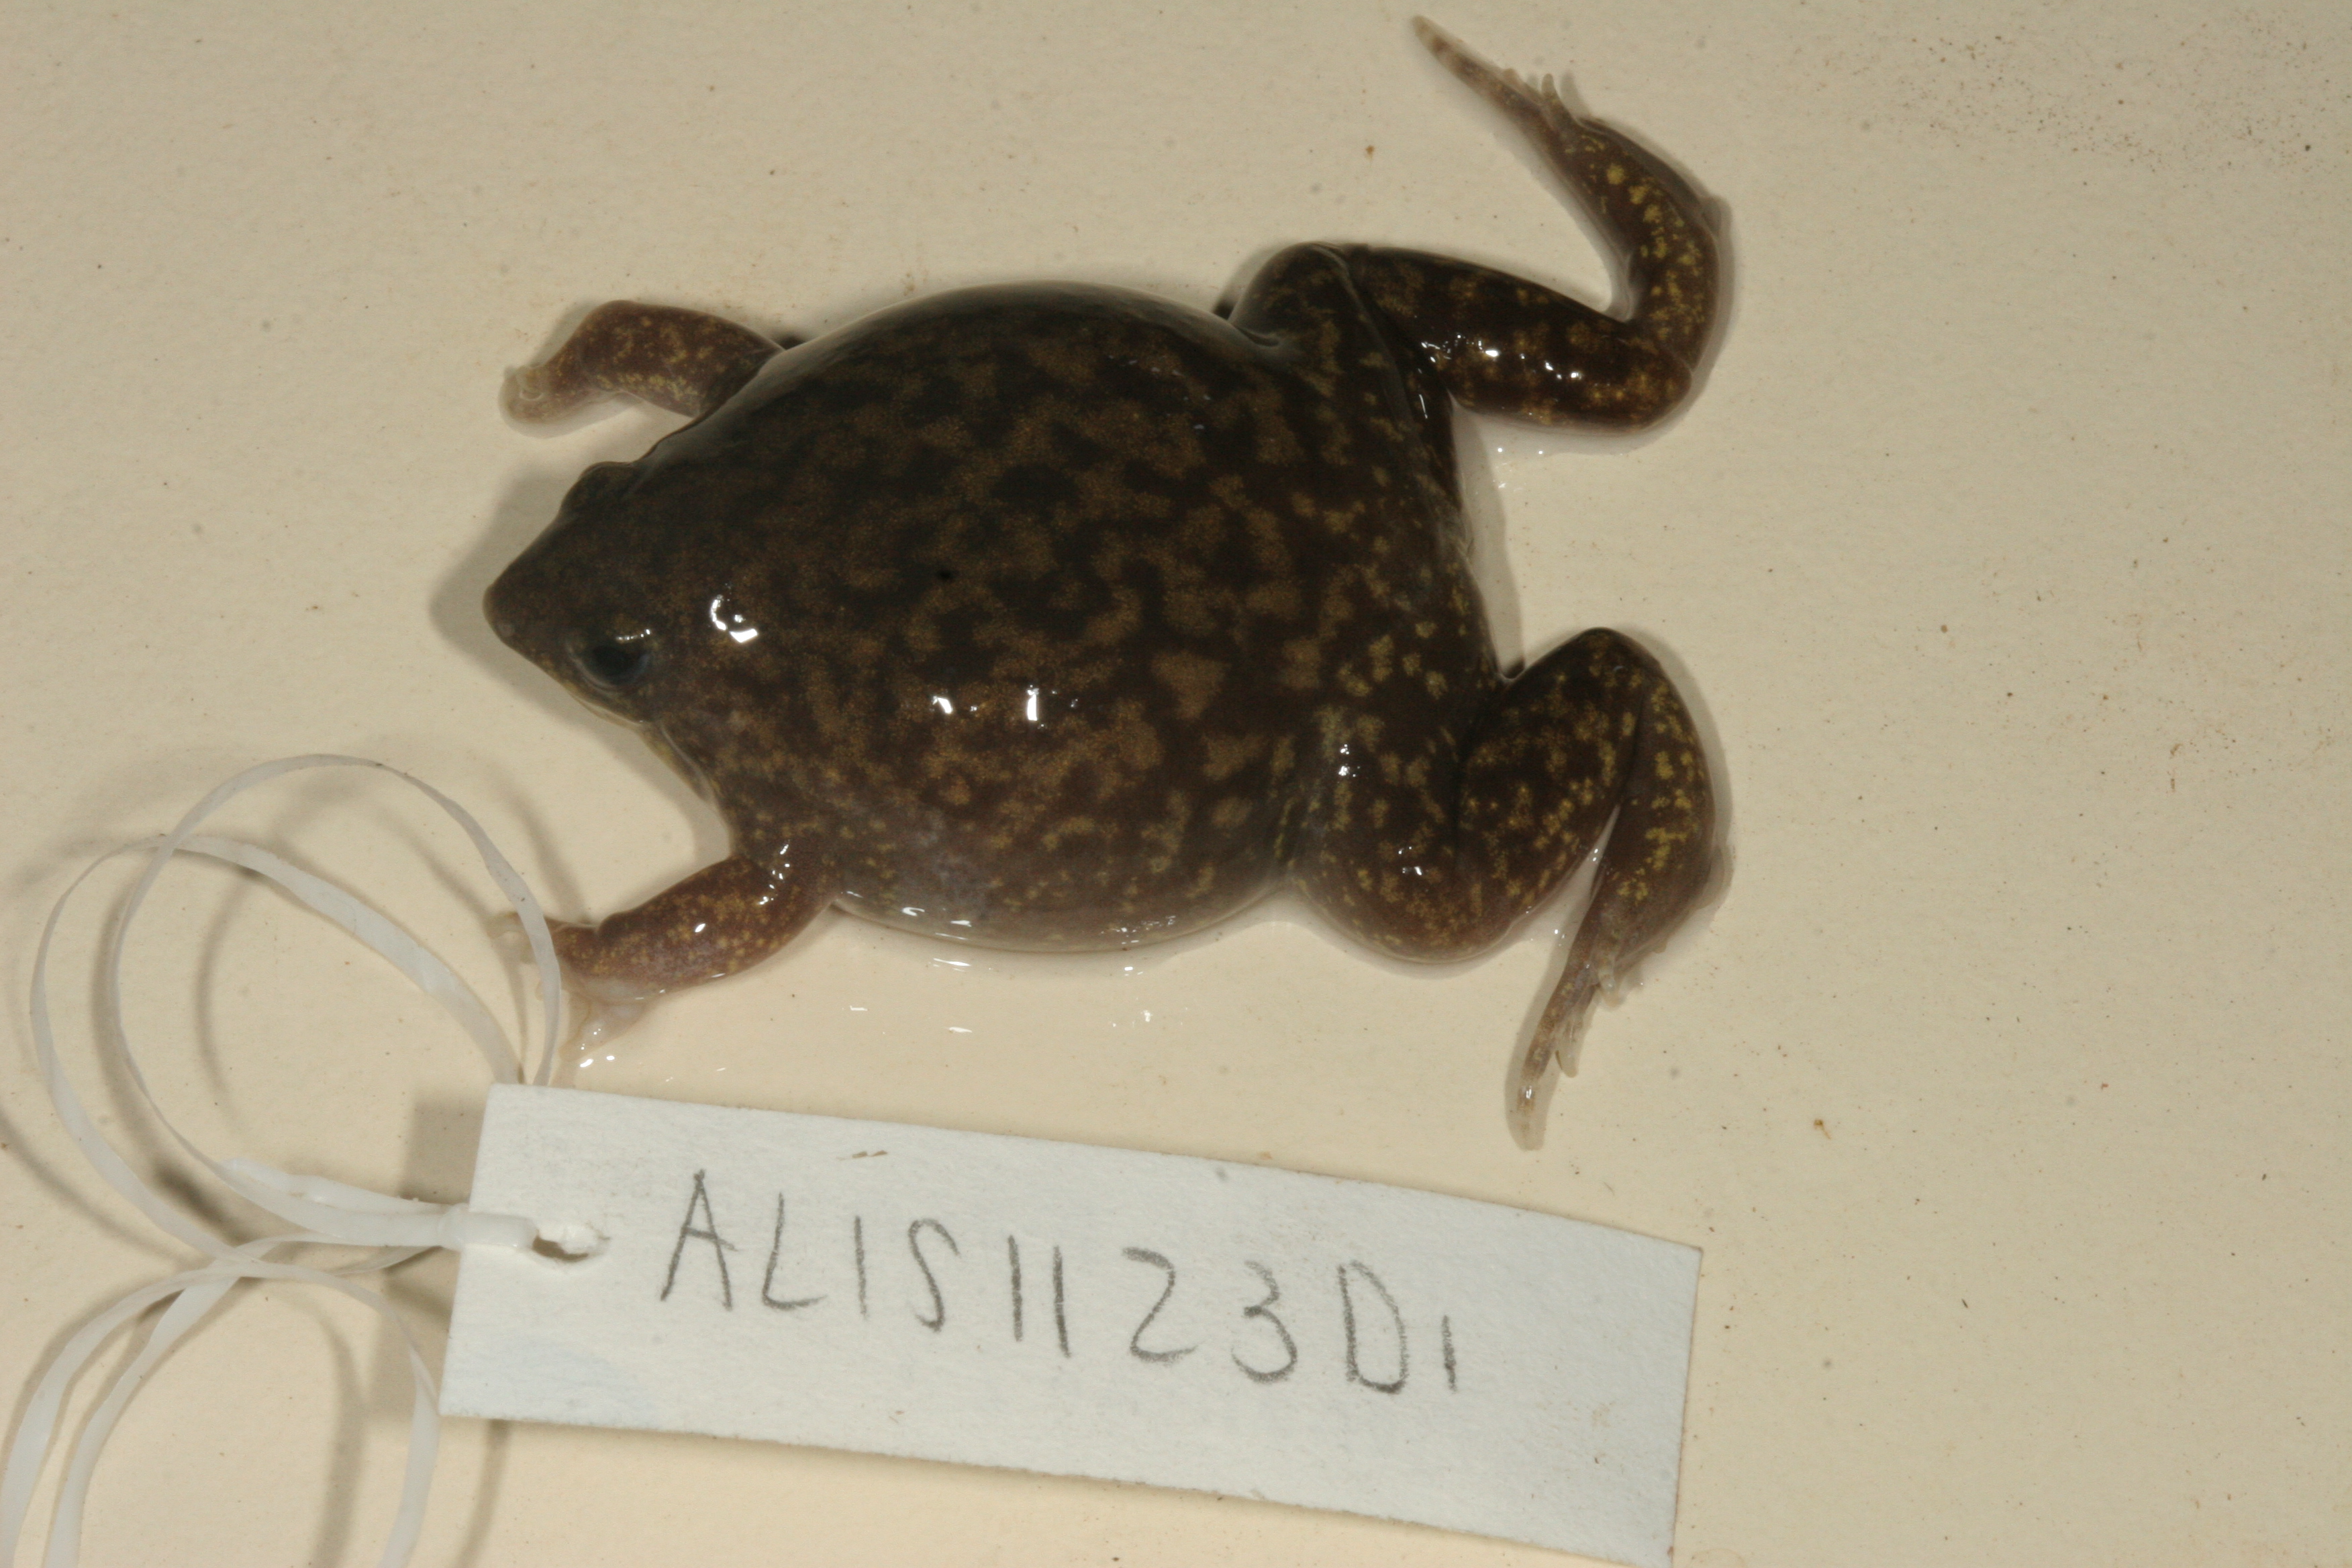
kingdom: Animalia
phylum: Chordata
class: Amphibia
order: Anura
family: Hemisotidae
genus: Hemisus
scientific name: Hemisus guttatus
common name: Spotted snout-burrower
